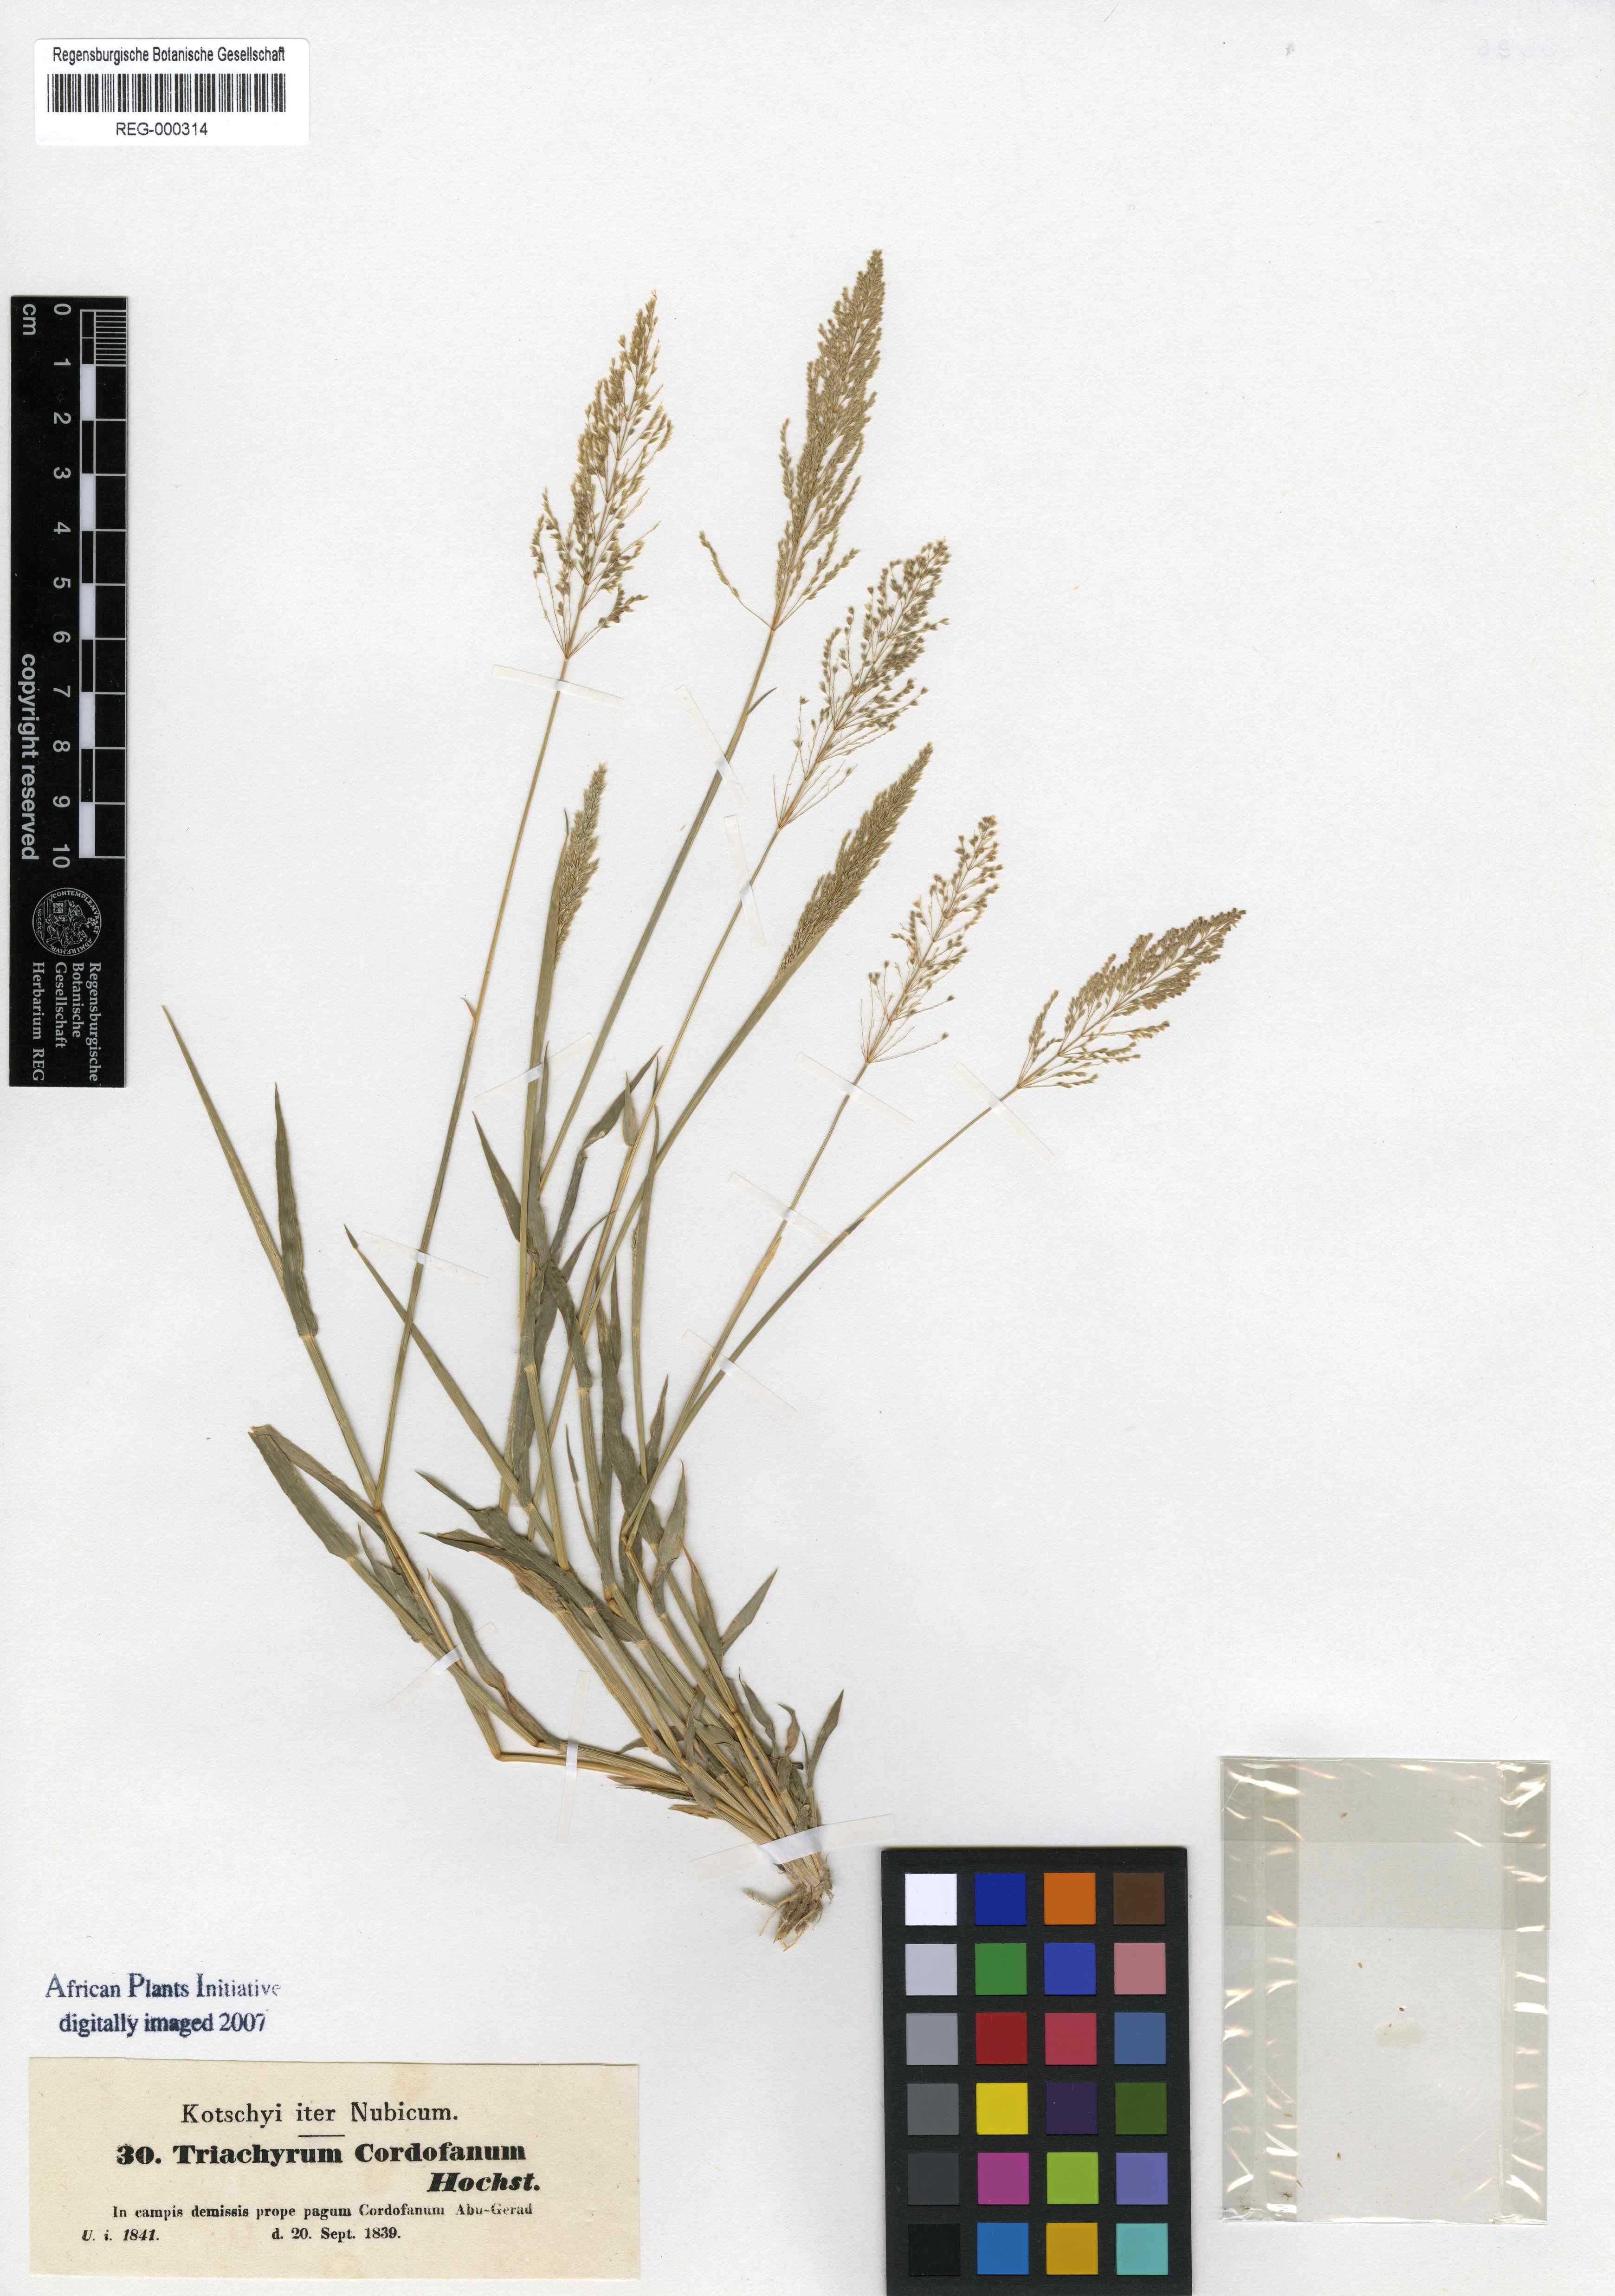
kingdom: Plantae
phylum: Tracheophyta
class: Liliopsida
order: Poales
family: Poaceae
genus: Sporobolus
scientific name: Sporobolus cordofanus
